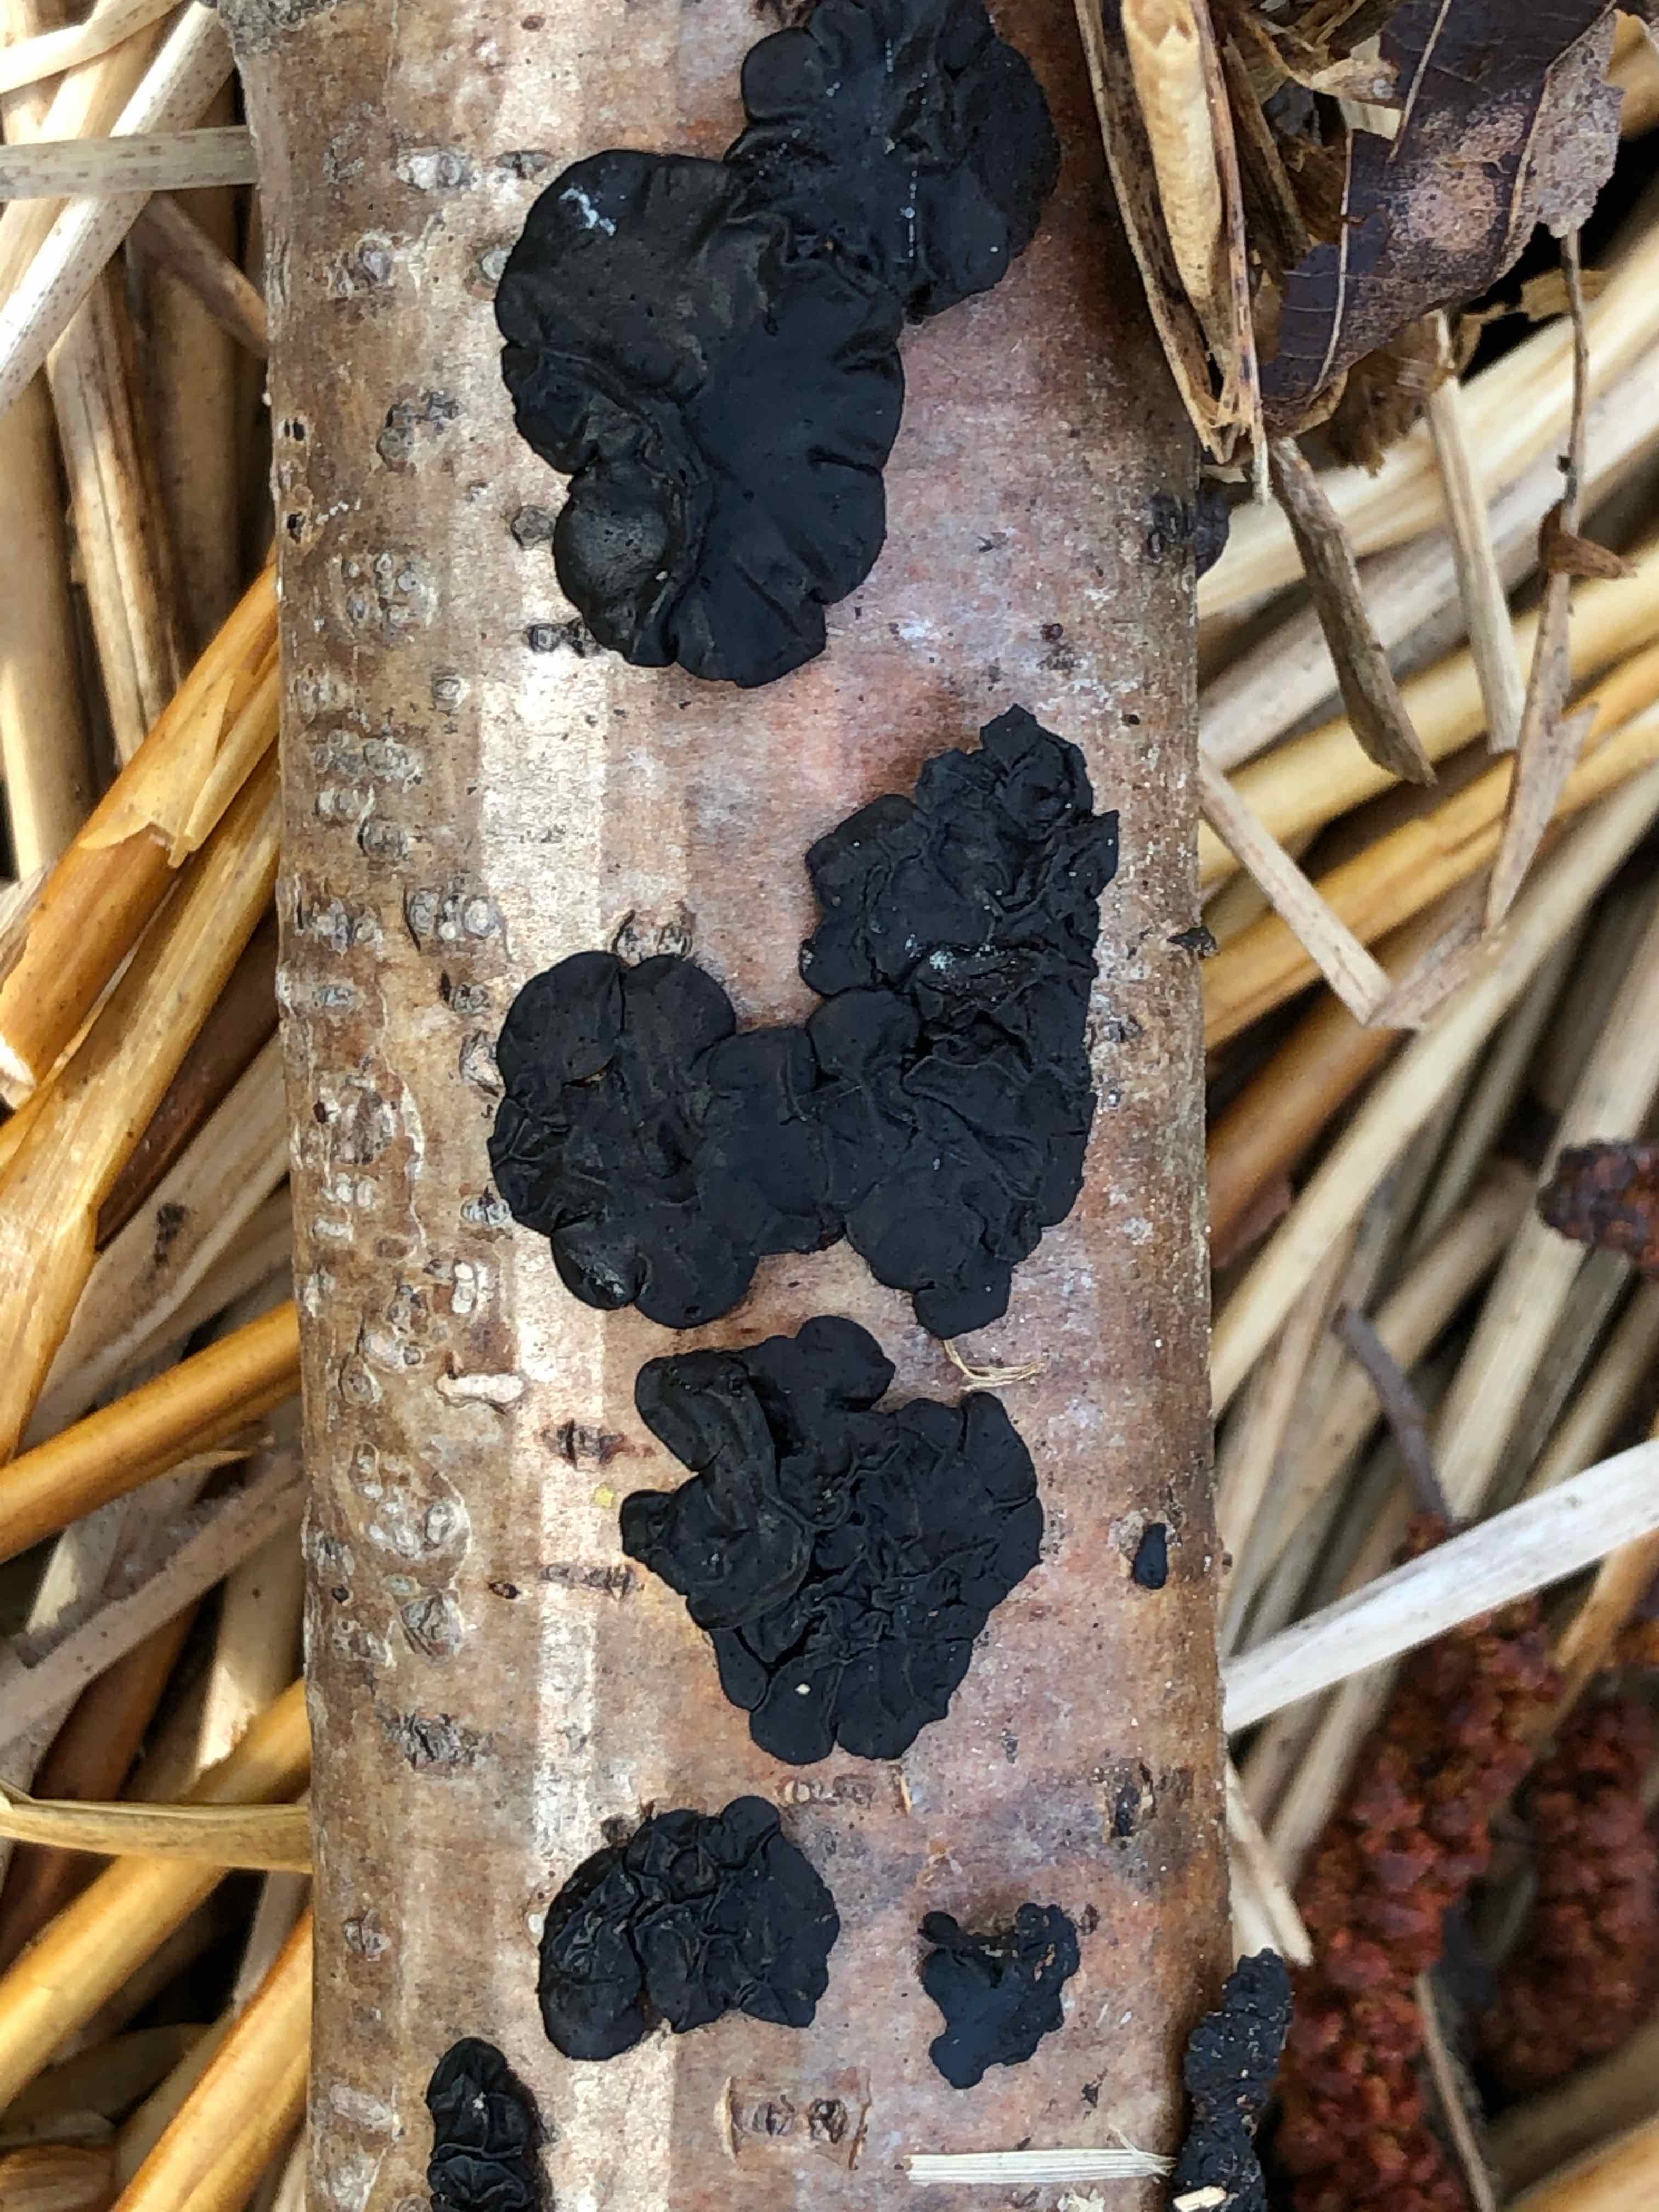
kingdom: Fungi
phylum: Basidiomycota
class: Agaricomycetes
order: Auriculariales
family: Auriculariaceae
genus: Exidia
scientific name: Exidia nigricans
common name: almindelig bævretop
